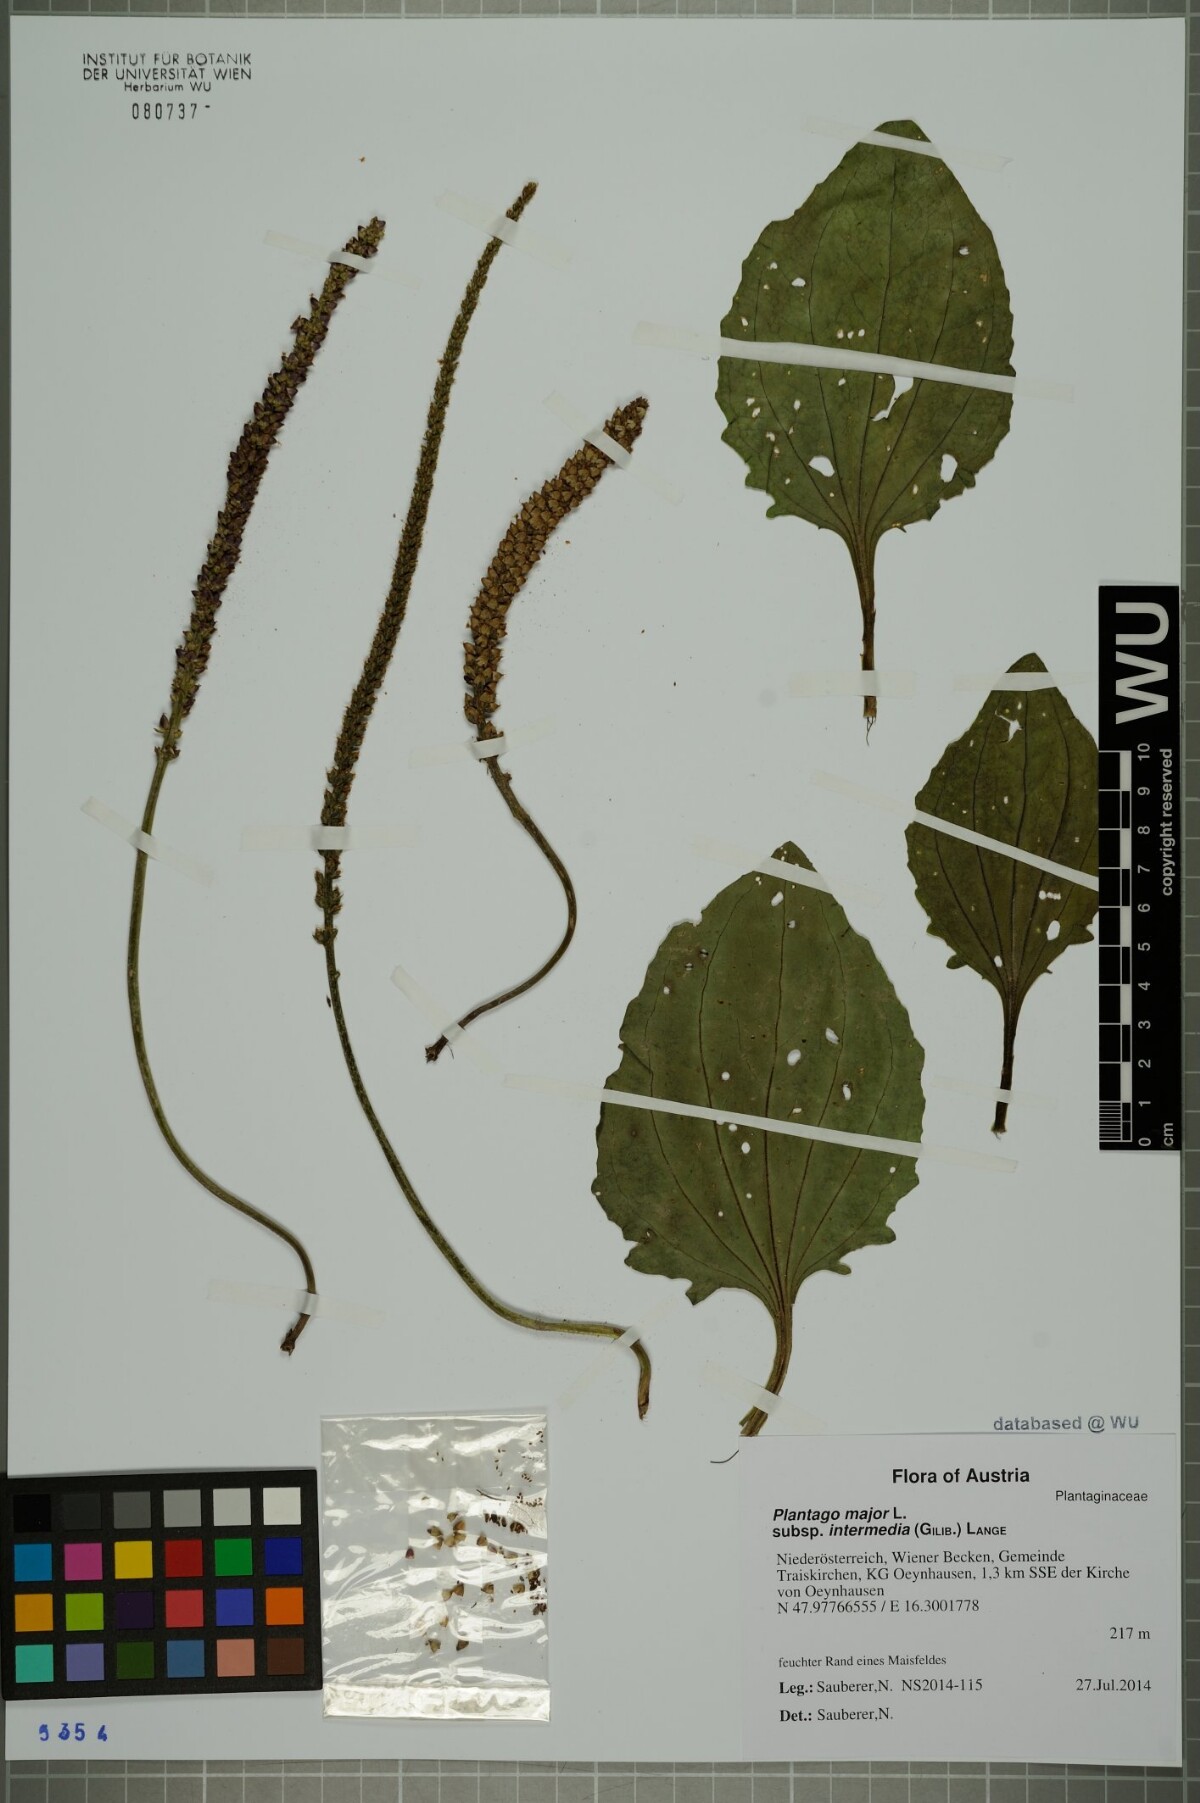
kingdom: Plantae
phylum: Tracheophyta
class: Magnoliopsida
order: Lamiales
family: Plantaginaceae
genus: Plantago
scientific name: Plantago uliginosa
